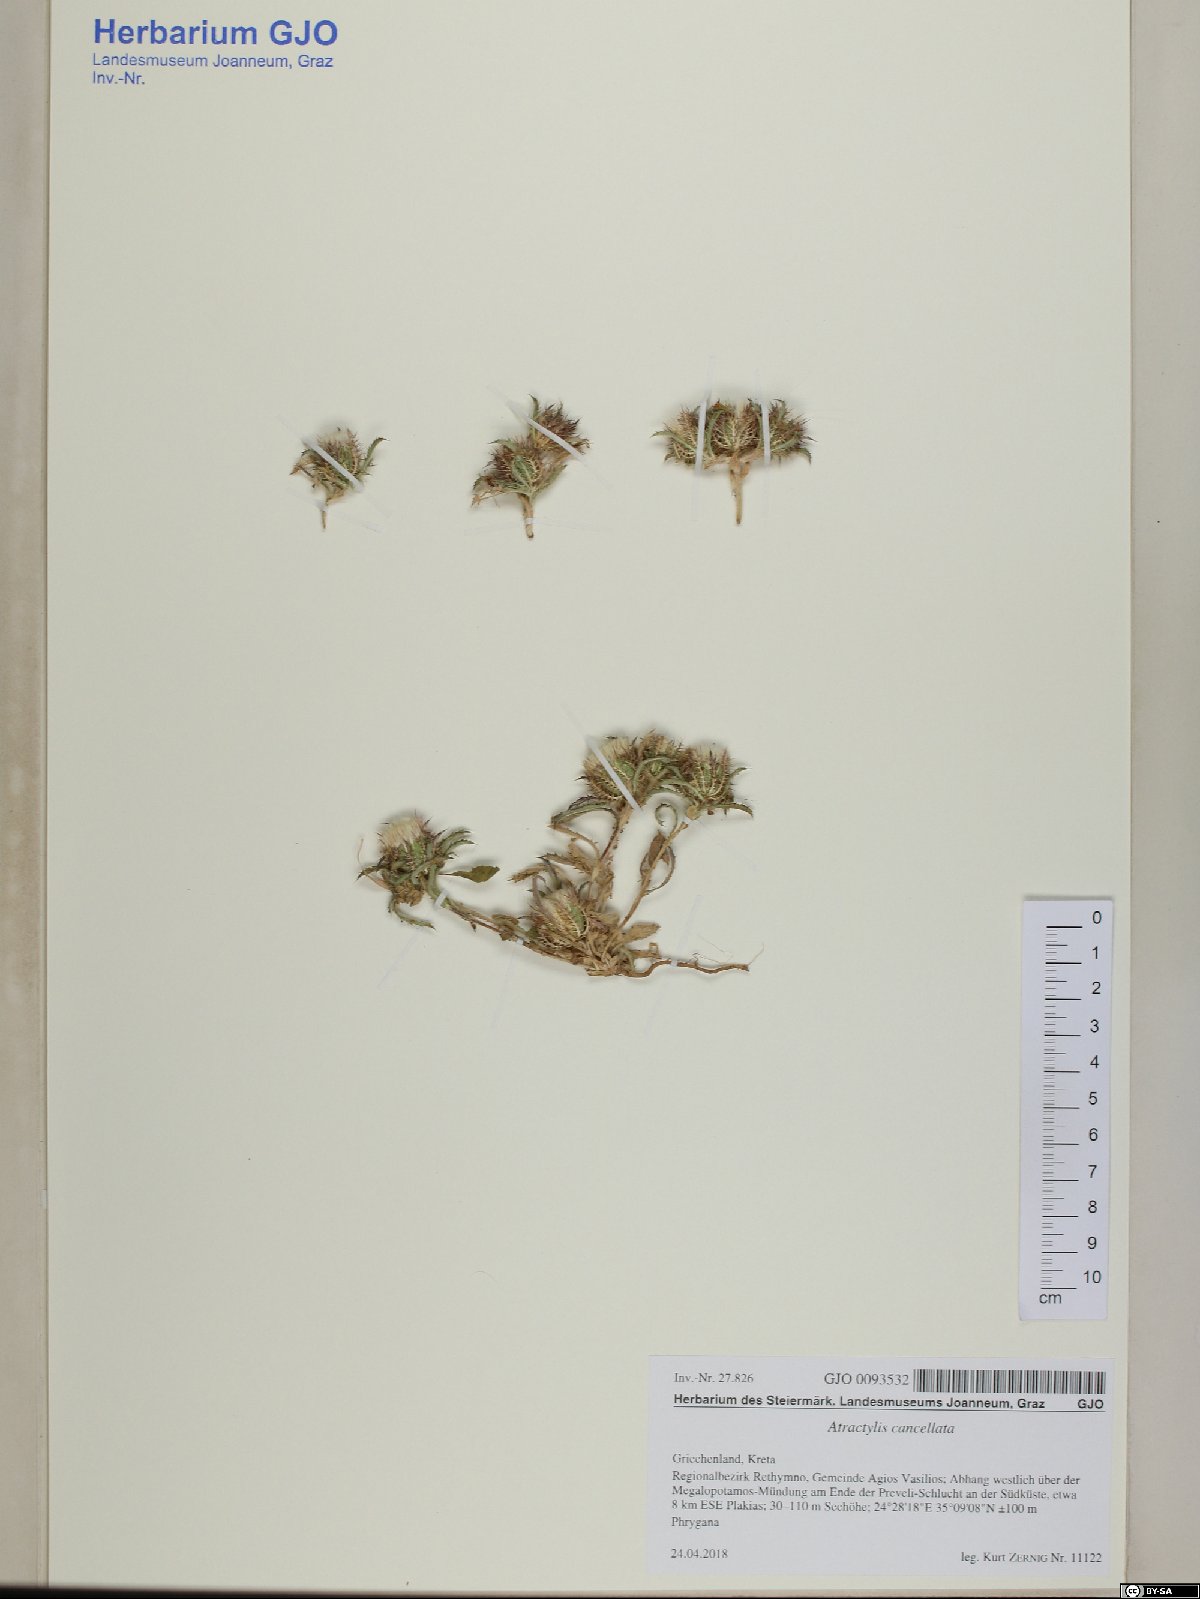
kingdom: Plantae
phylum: Tracheophyta
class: Magnoliopsida
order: Asterales
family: Asteraceae
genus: Atractylis
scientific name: Atractylis cancellata
